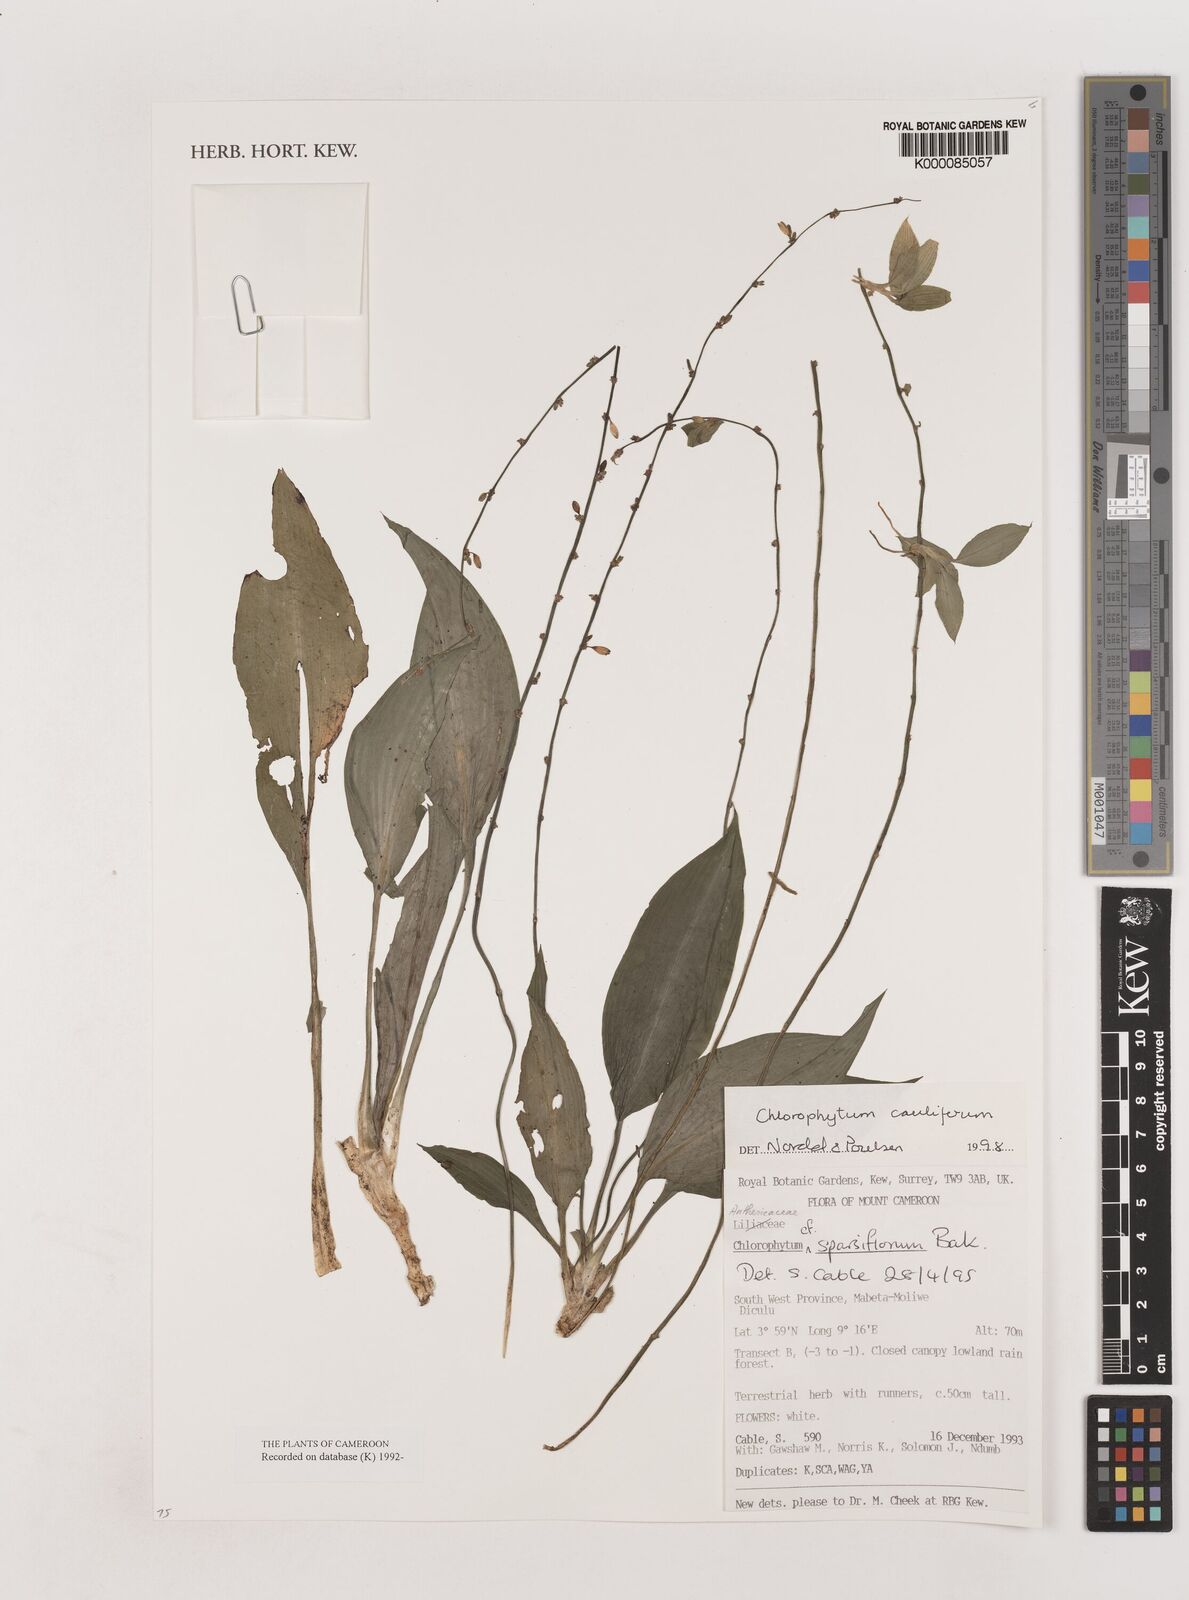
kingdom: Plantae
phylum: Tracheophyta
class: Liliopsida
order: Asparagales
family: Asparagaceae
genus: Chlorophytum
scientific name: Chlorophytum sparsiflorum
